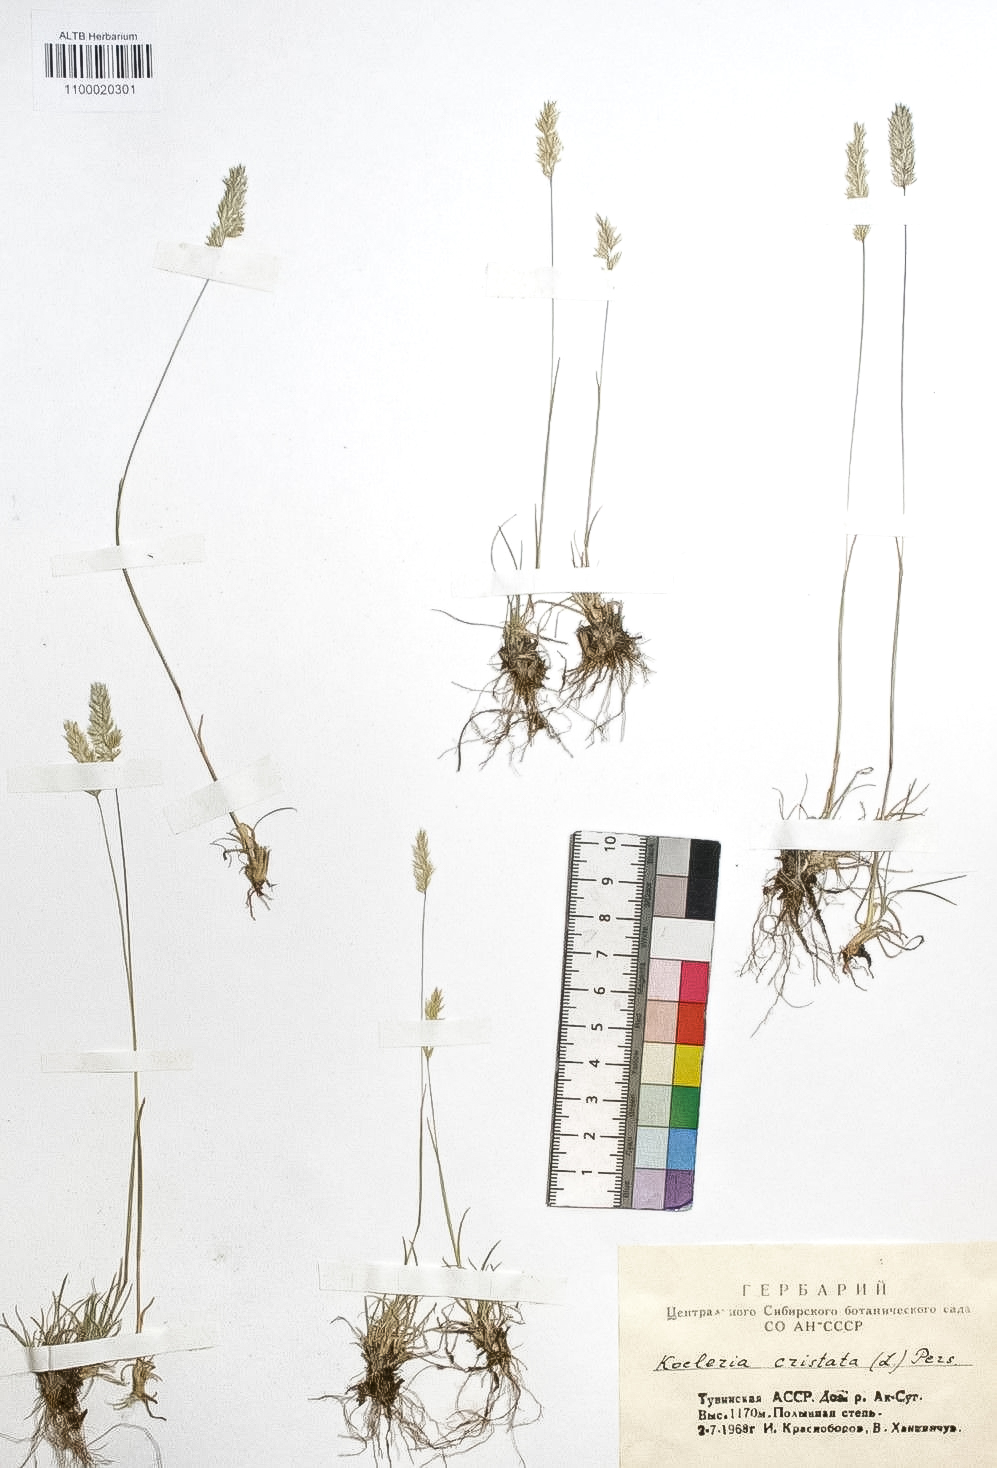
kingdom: Plantae
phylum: Tracheophyta
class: Liliopsida
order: Poales
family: Poaceae
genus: Koeleria
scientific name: Koeleria pyramidata
